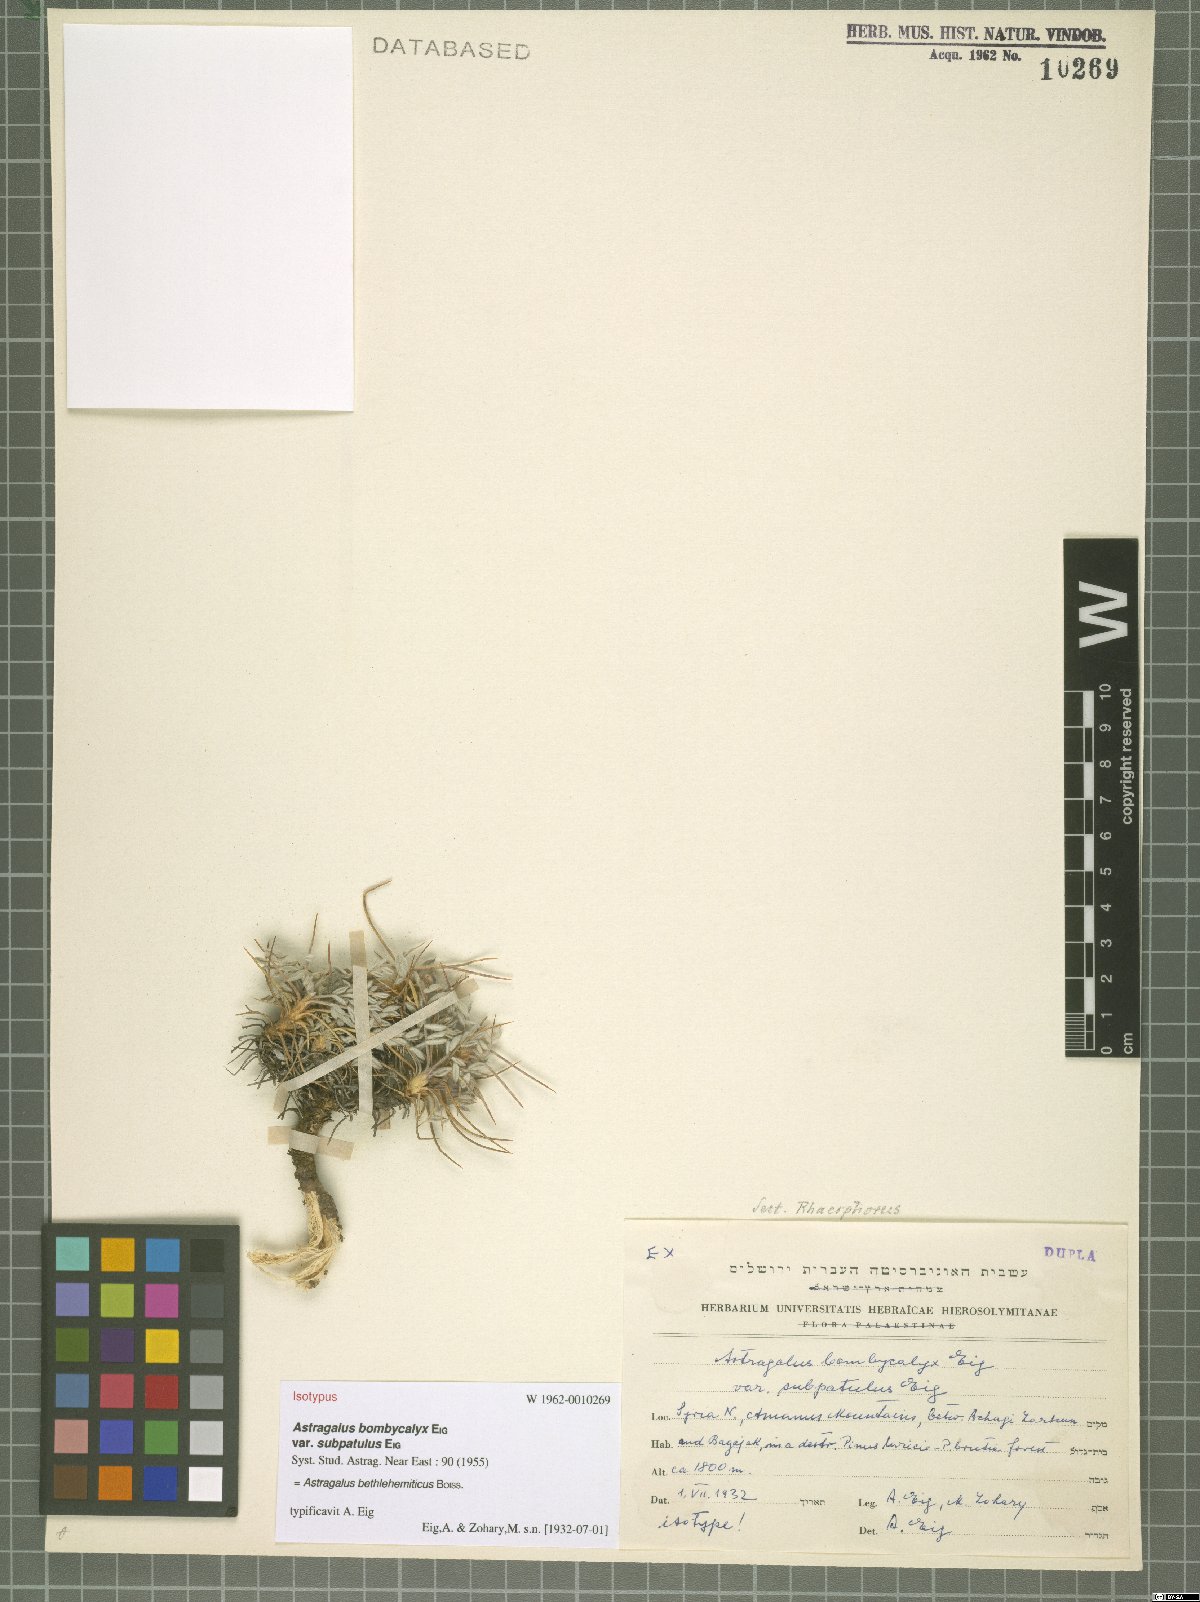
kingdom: Plantae
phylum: Tracheophyta
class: Magnoliopsida
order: Fabales
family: Fabaceae
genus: Astragalus
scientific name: Astragalus bethlehemiticus
